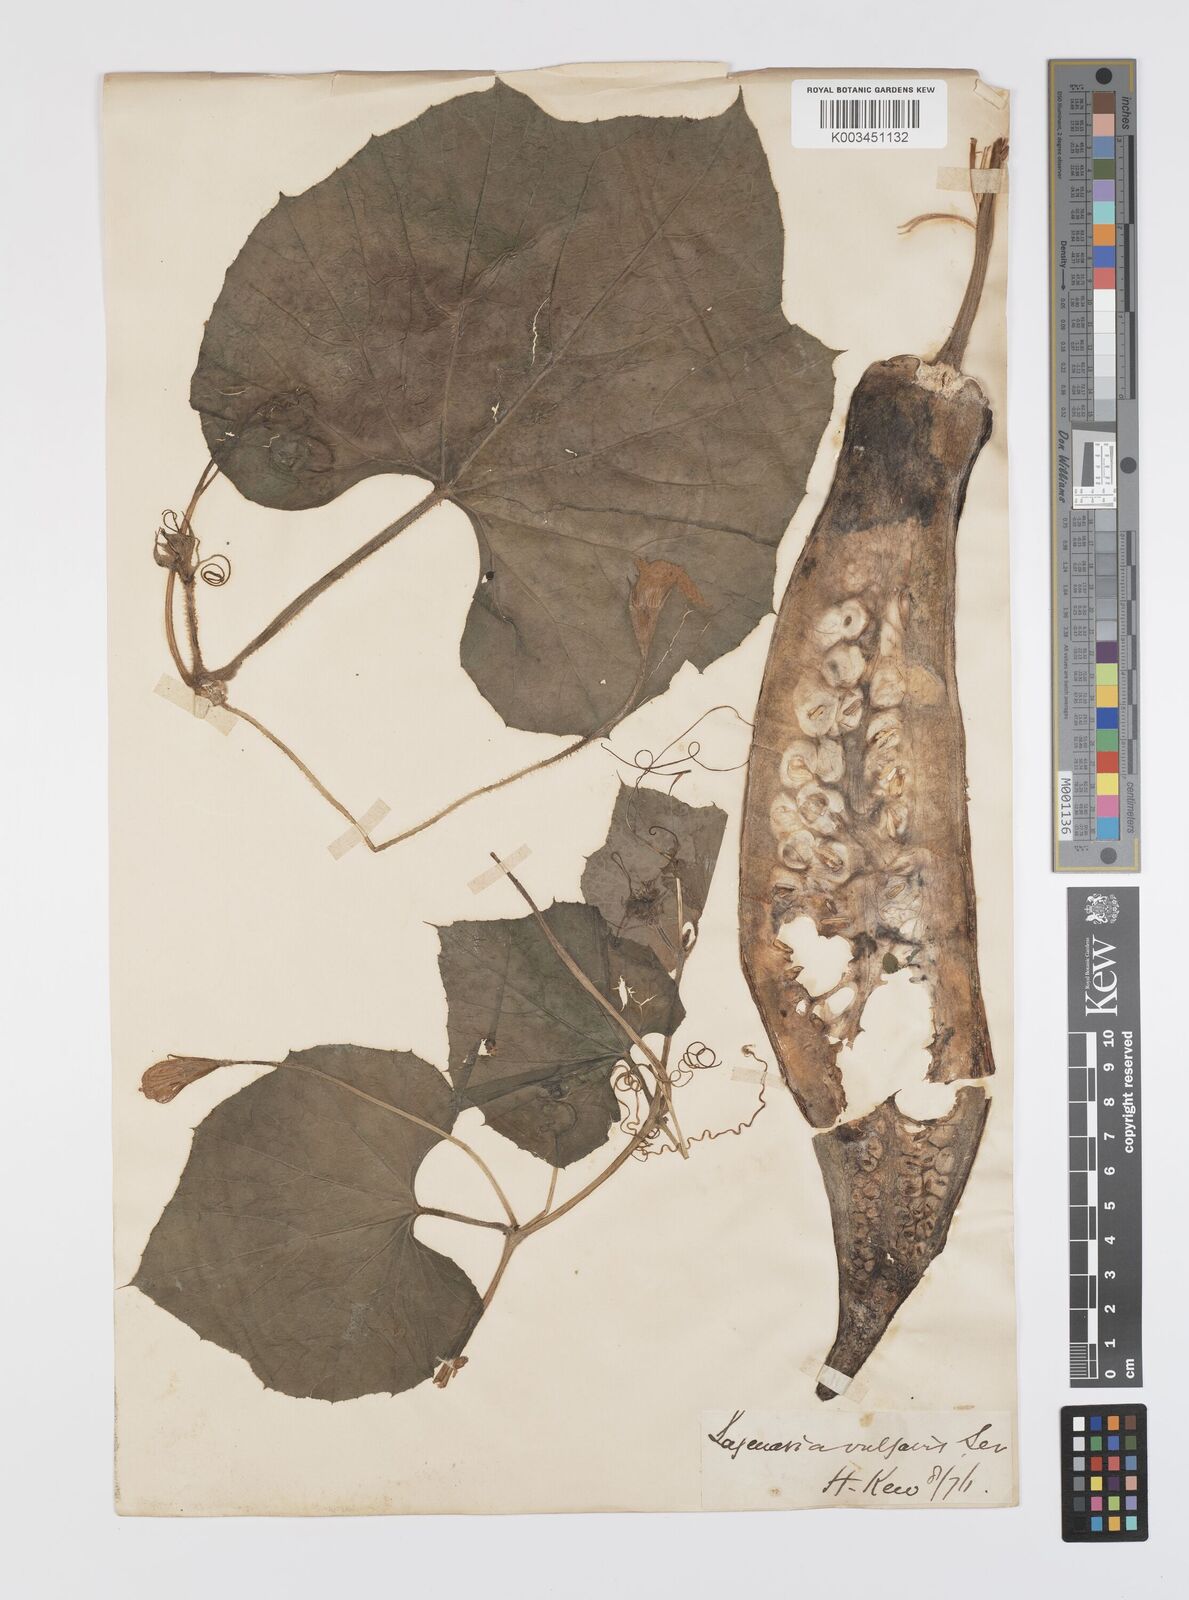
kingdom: Plantae
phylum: Tracheophyta
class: Magnoliopsida
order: Cucurbitales
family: Cucurbitaceae
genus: Lagenaria
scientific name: Lagenaria siceraria
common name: Bottle gourd
